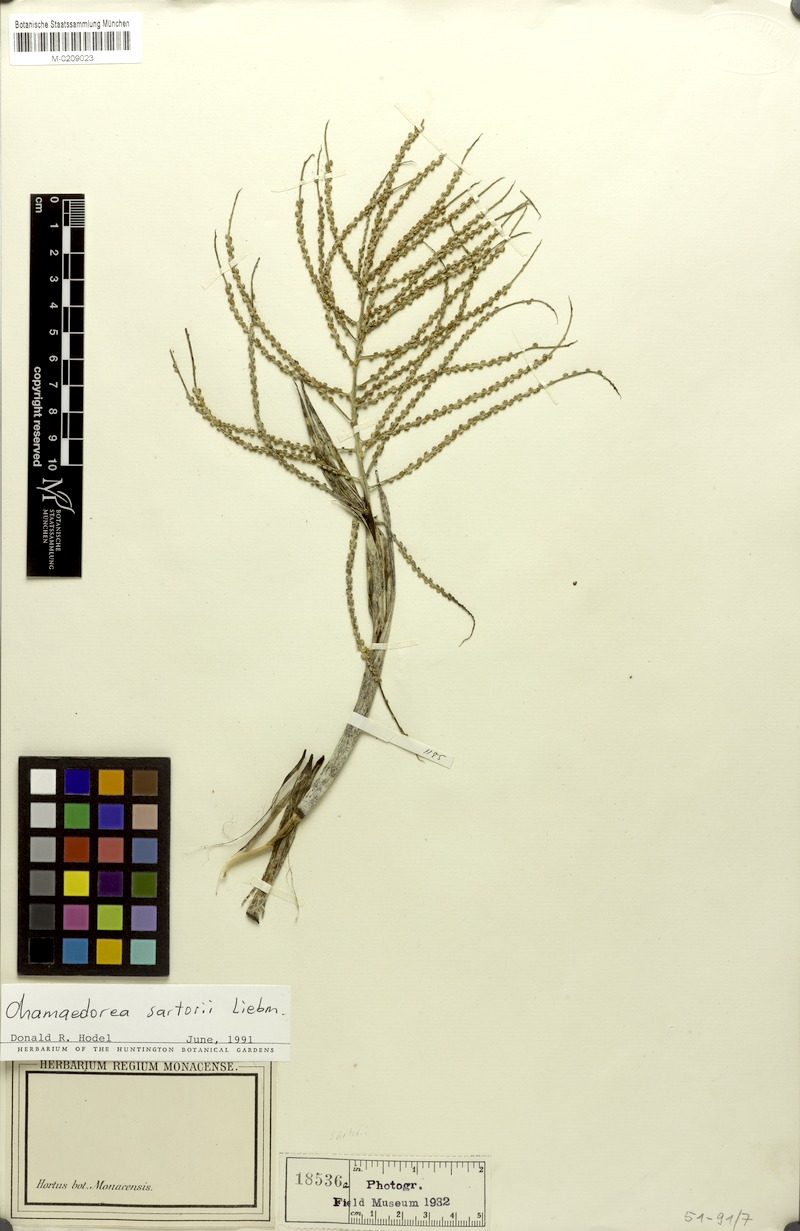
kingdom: Plantae
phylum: Tracheophyta
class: Liliopsida
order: Arecales
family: Arecaceae
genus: Chamaedorea
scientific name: Chamaedorea sartorii
